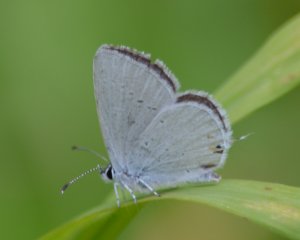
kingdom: Animalia
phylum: Arthropoda
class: Insecta
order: Lepidoptera
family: Lycaenidae
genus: Elkalyce
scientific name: Elkalyce amyntula
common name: Western Tailed-Blue
